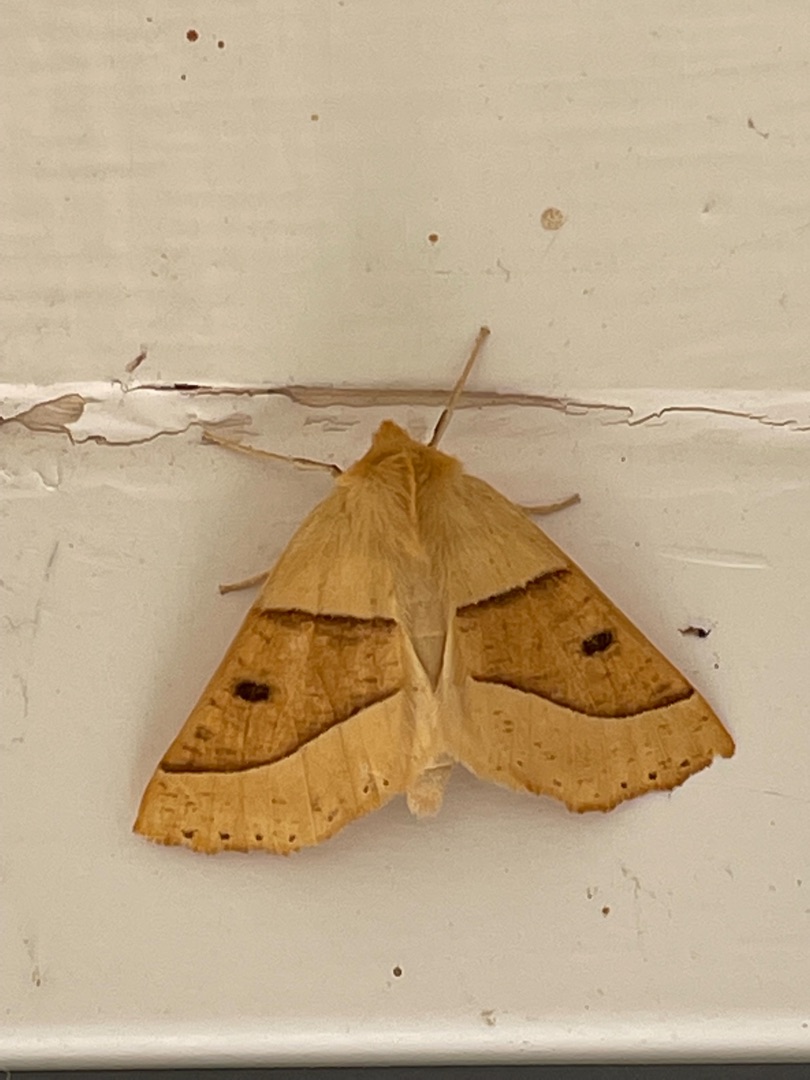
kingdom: Animalia
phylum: Arthropoda
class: Insecta
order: Lepidoptera
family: Geometridae
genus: Crocallis
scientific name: Crocallis elinguaria
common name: Okkergul rovmåler
